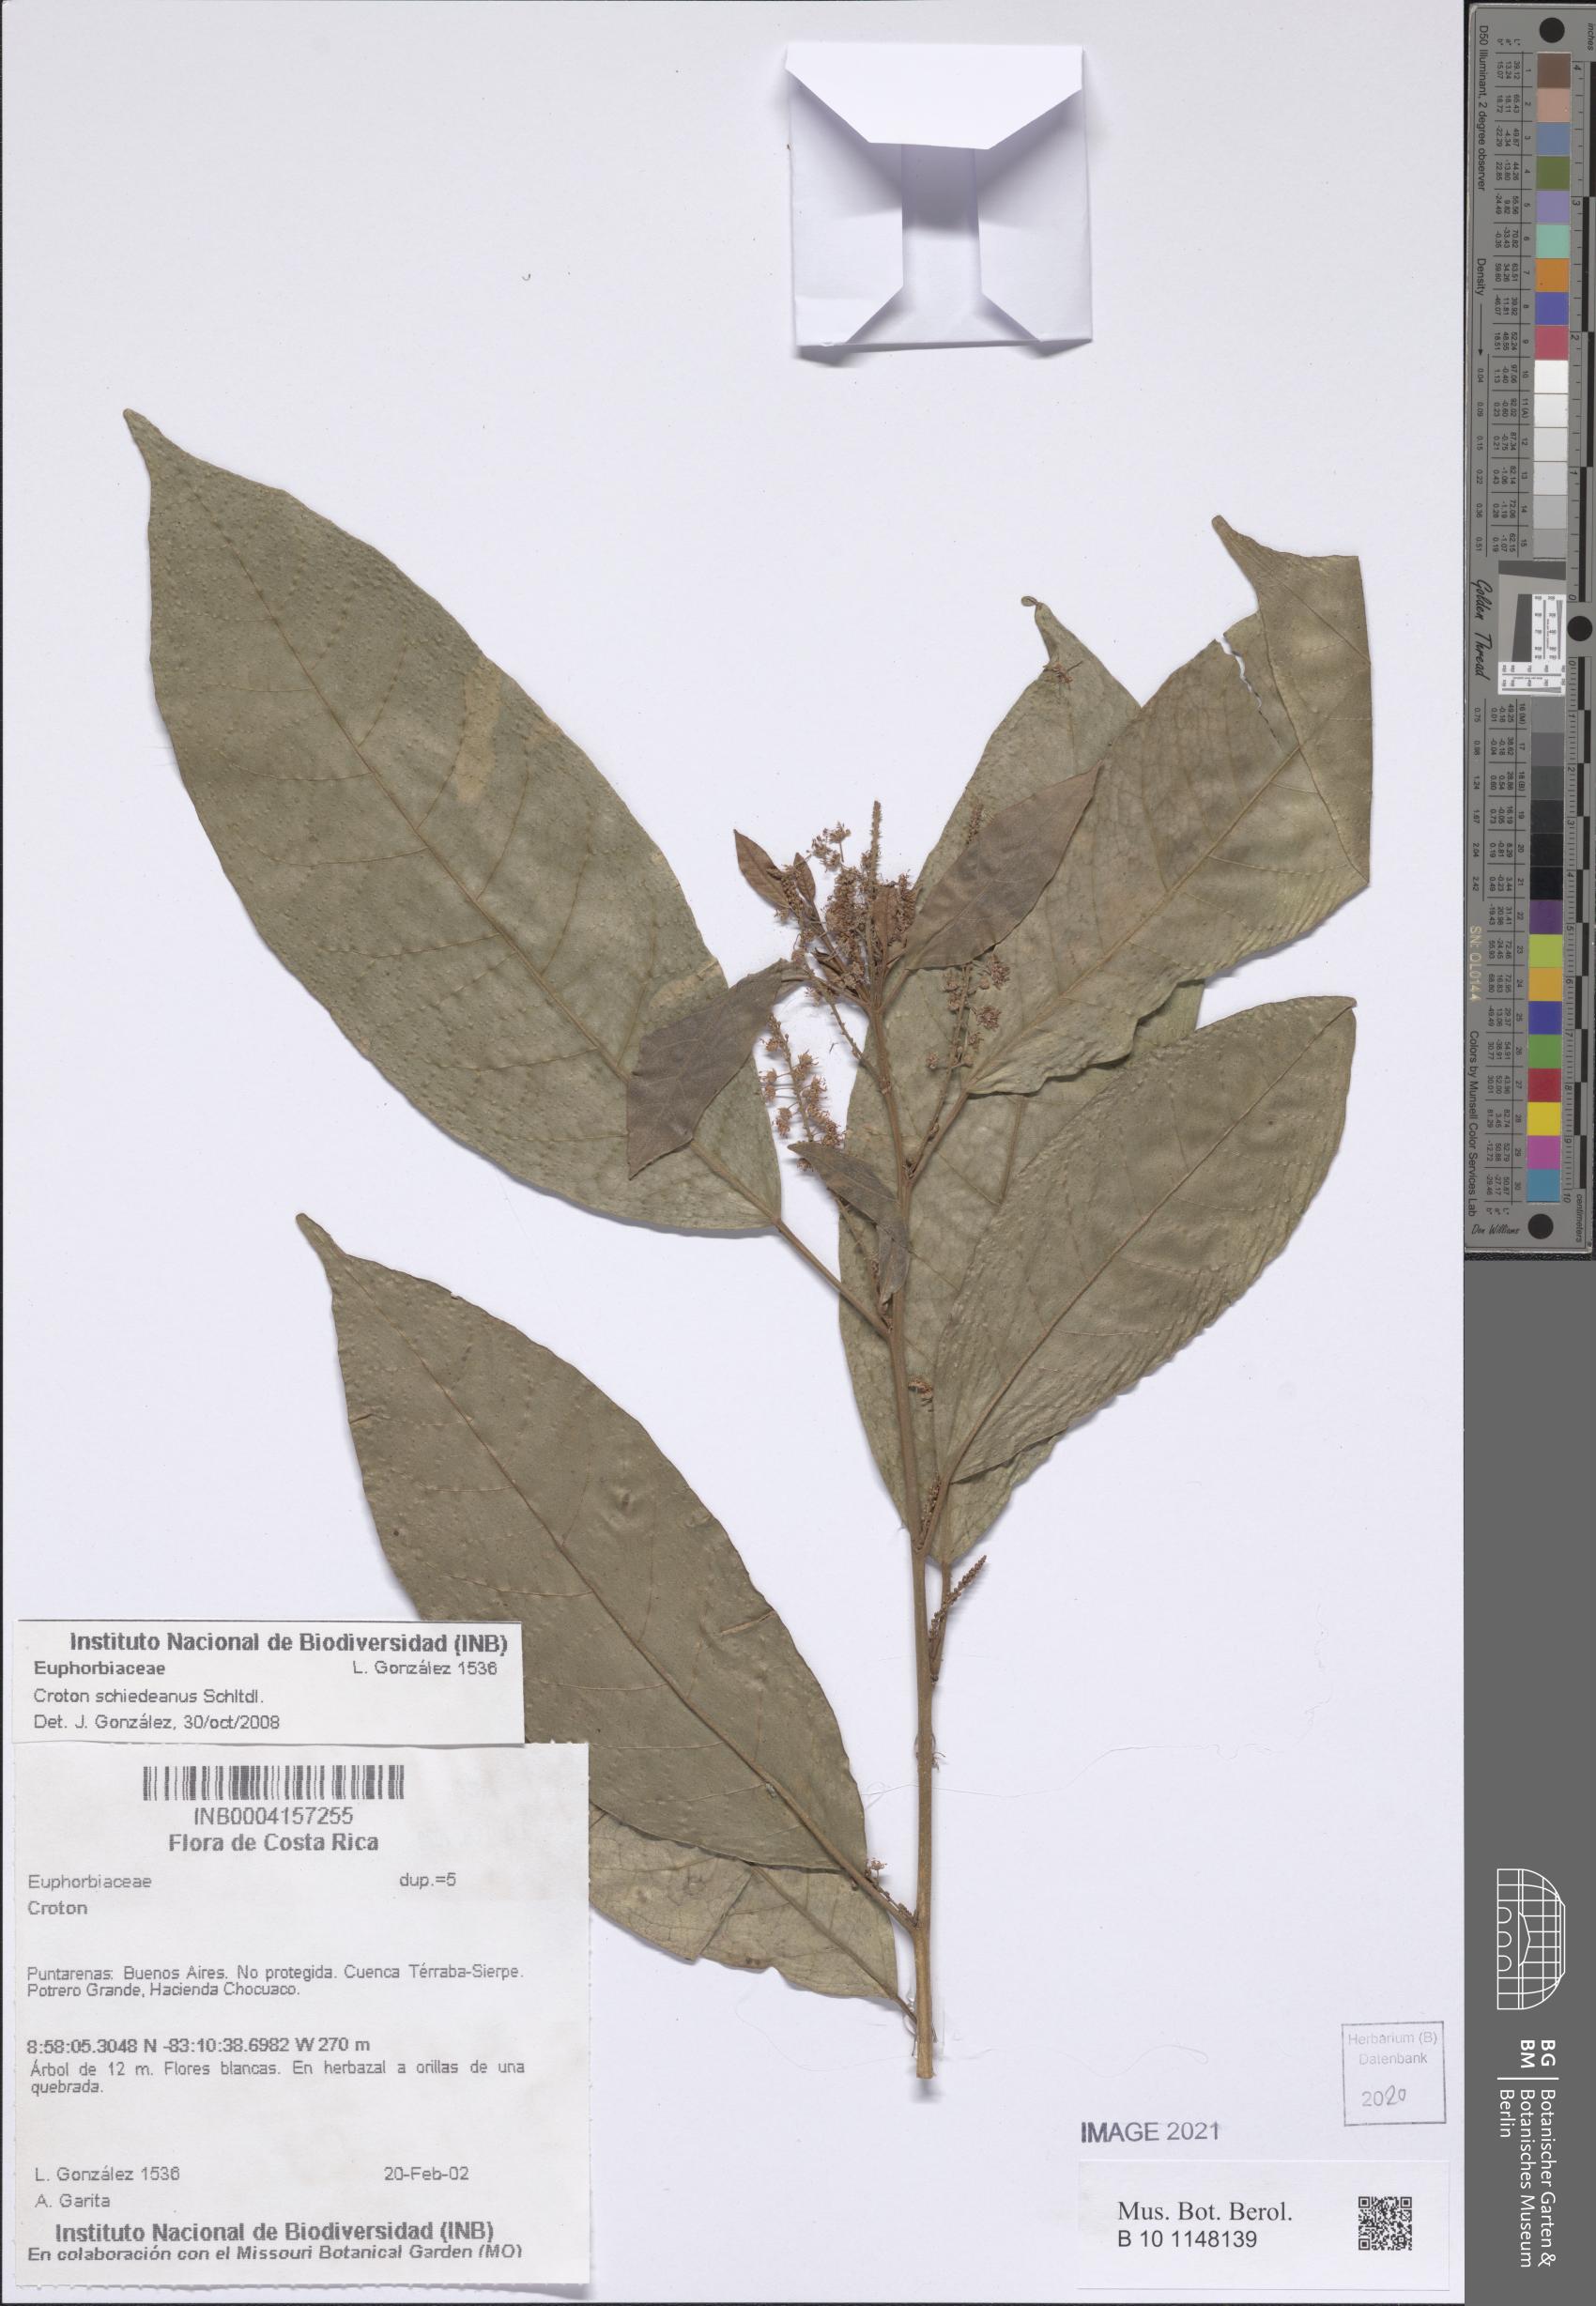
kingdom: Plantae
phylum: Tracheophyta
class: Magnoliopsida
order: Malpighiales
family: Euphorbiaceae
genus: Croton
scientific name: Croton schiedeanus
